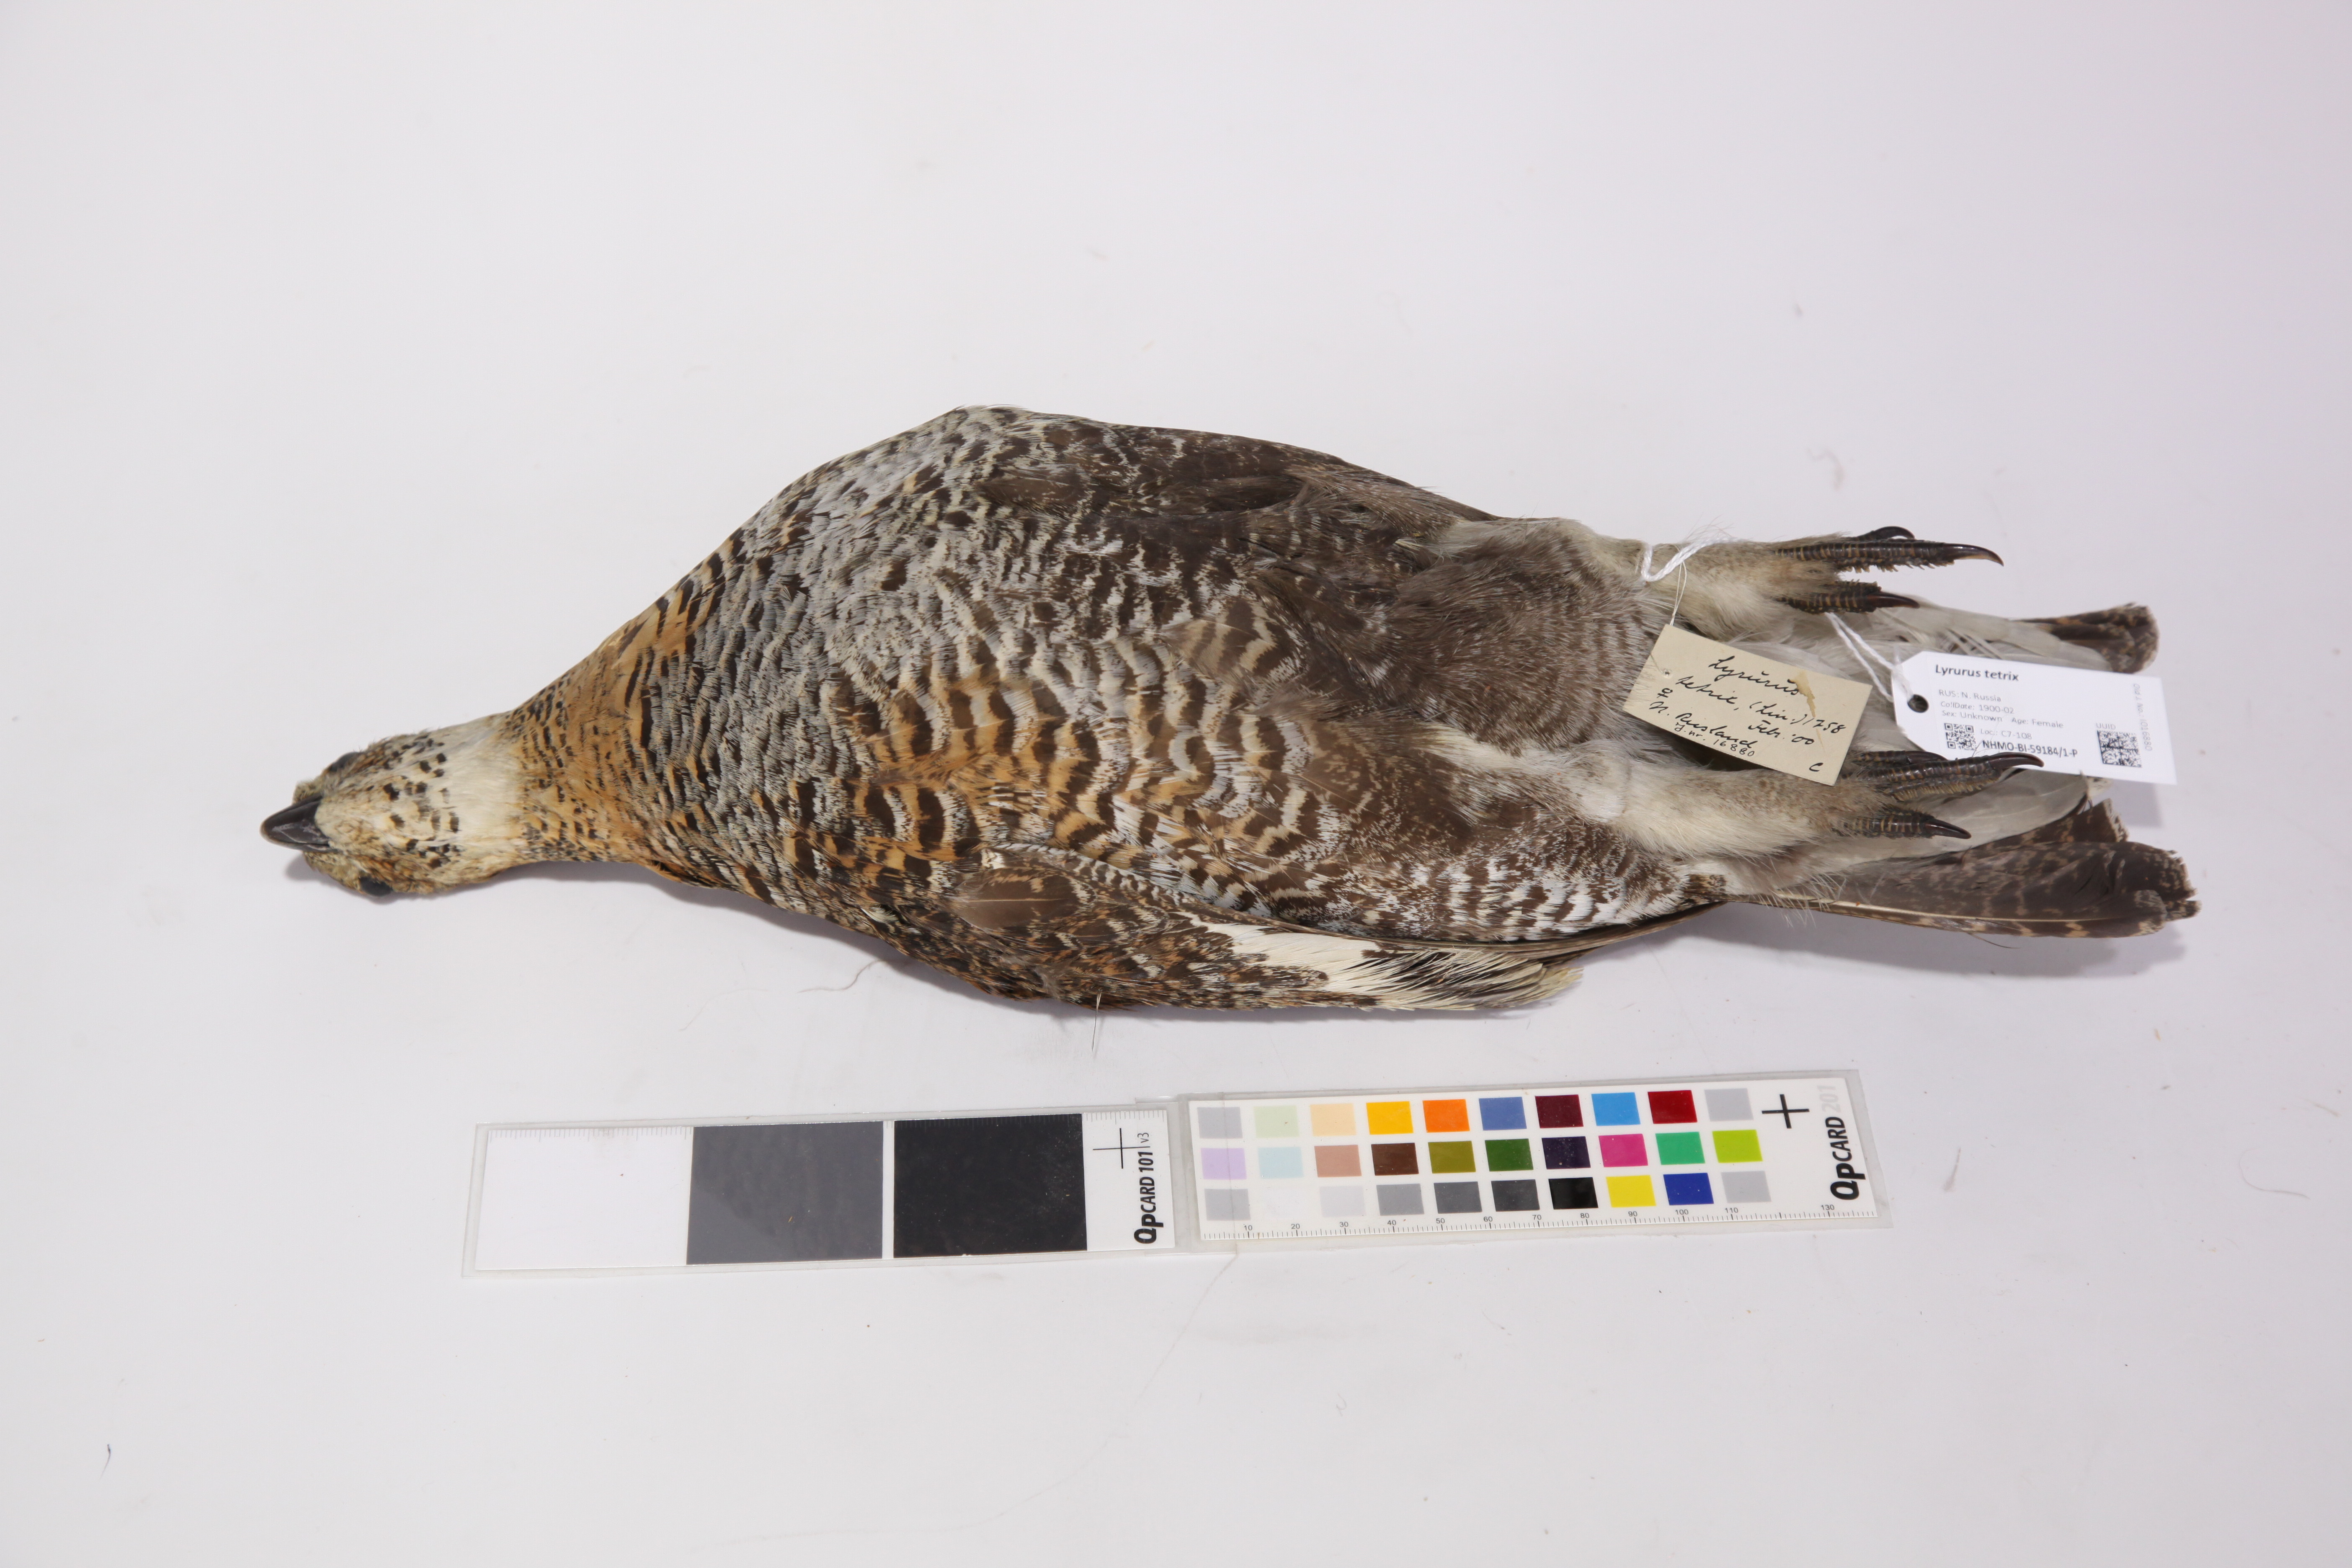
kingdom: Animalia
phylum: Chordata
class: Aves
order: Galliformes
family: Phasianidae
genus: Lyrurus
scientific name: Lyrurus tetrix
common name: Black grouse
